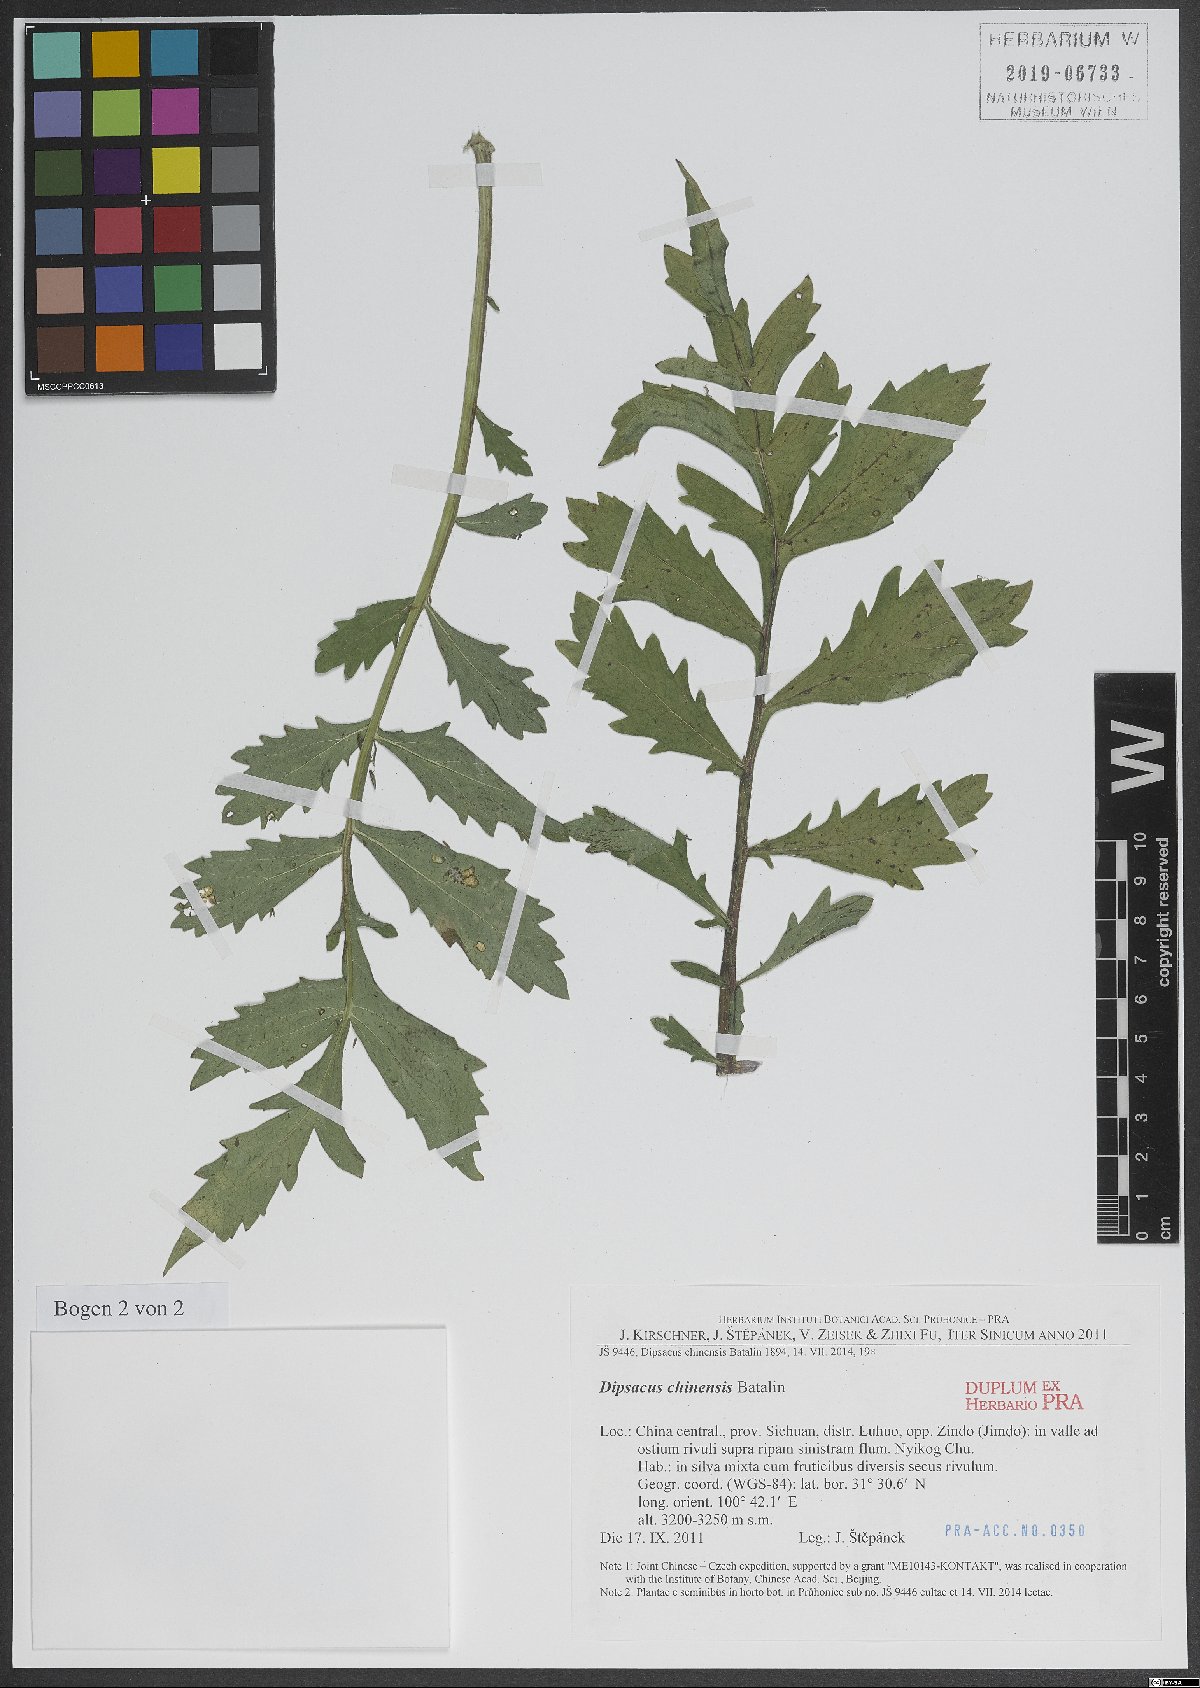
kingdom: Plantae
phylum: Tracheophyta
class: Magnoliopsida
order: Dipsacales
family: Caprifoliaceae
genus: Dipsacus
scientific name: Dipsacus inermis
